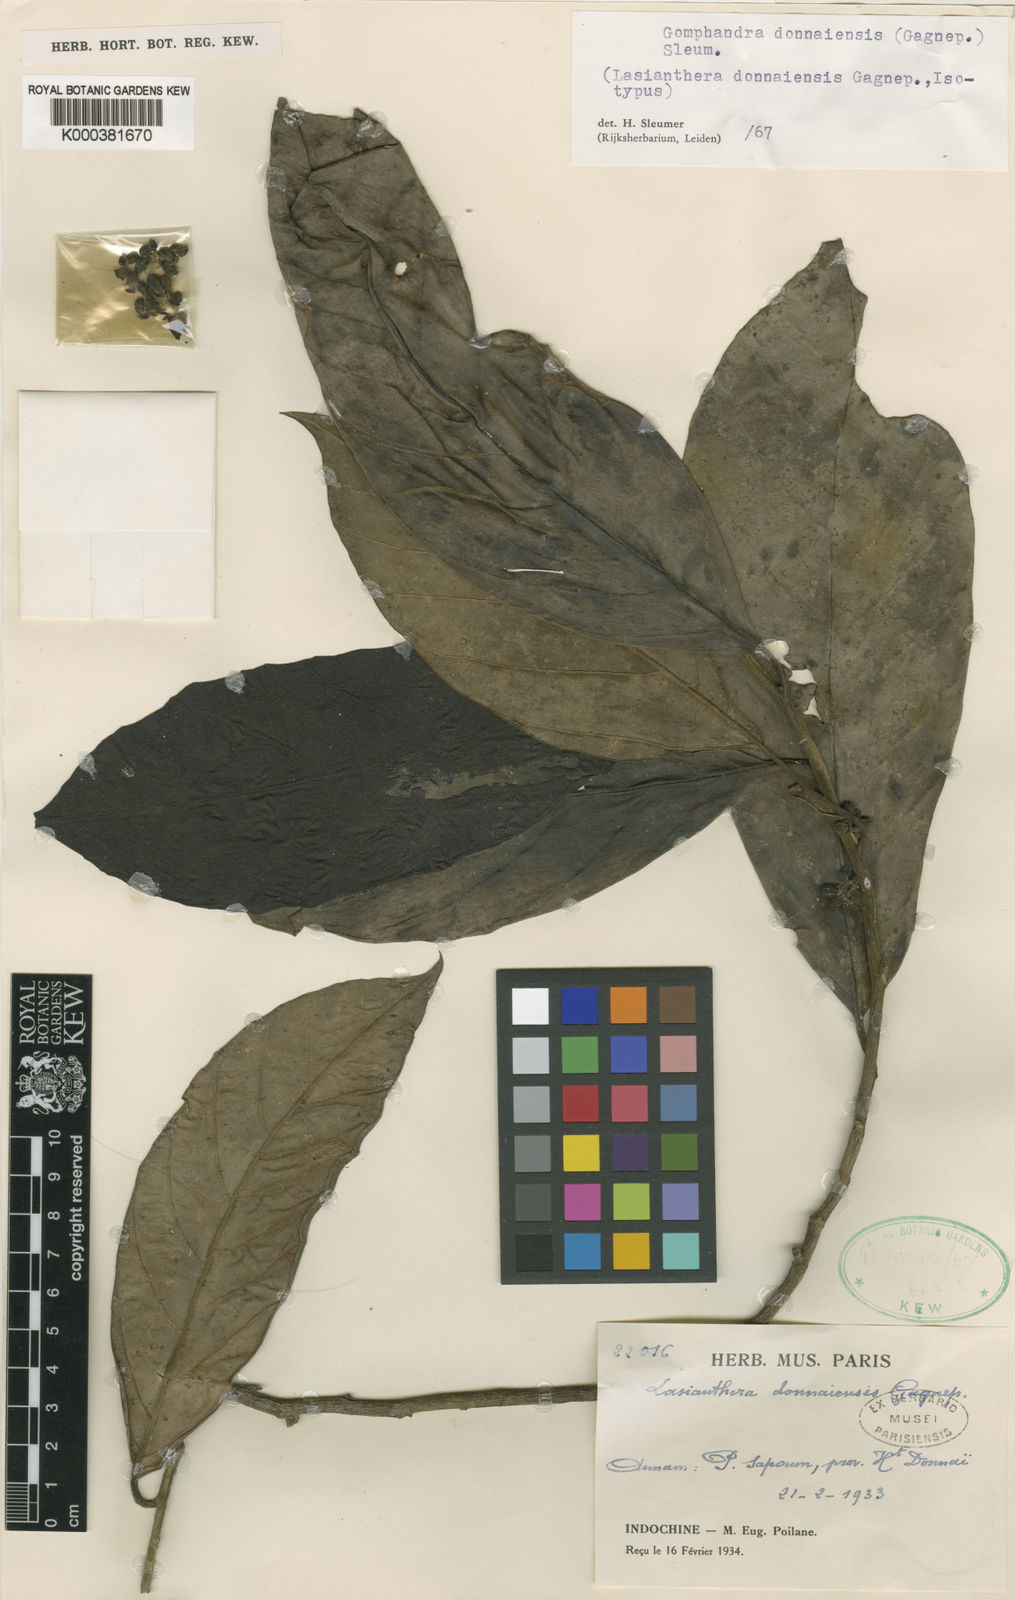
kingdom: Plantae
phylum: Tracheophyta
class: Magnoliopsida
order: Cardiopteridales
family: Stemonuraceae
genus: Gomphandra
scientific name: Gomphandra donnaiensis
